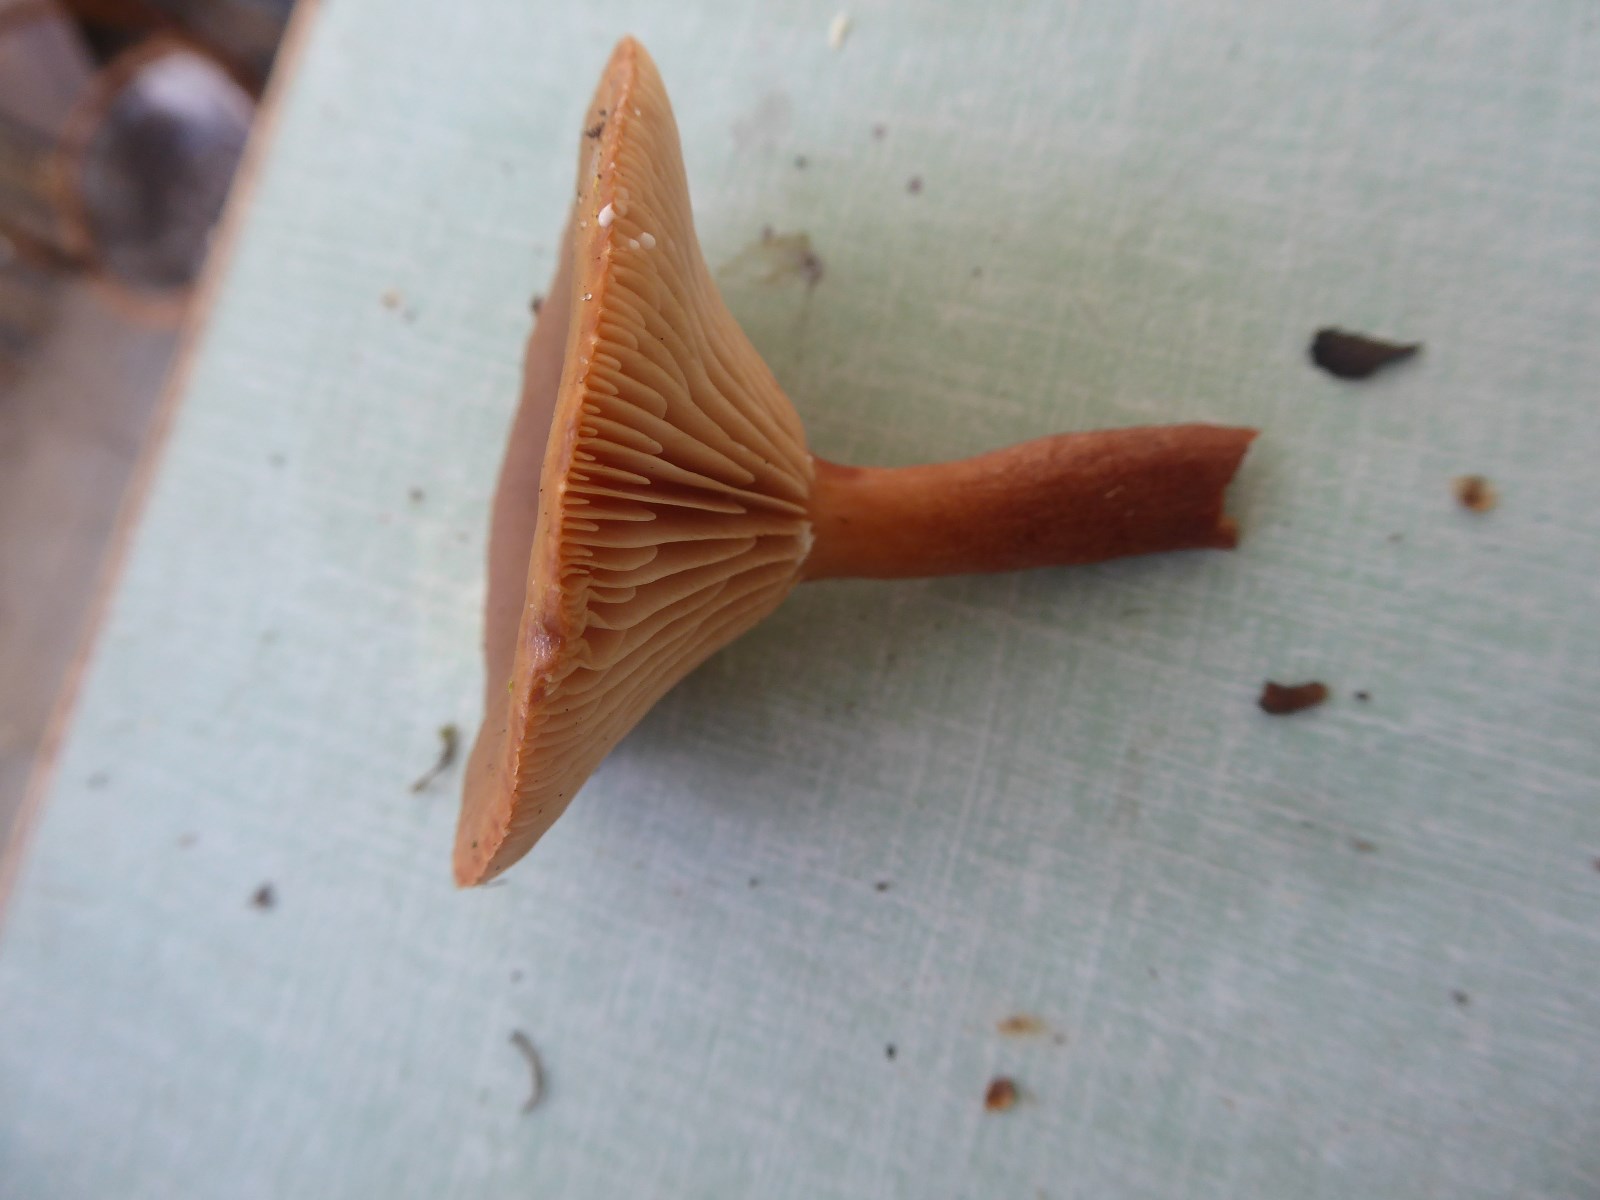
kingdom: Fungi
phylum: Basidiomycota
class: Agaricomycetes
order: Russulales
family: Russulaceae
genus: Lactarius
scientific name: Lactarius hepaticus
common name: leverbrun mælkehat
